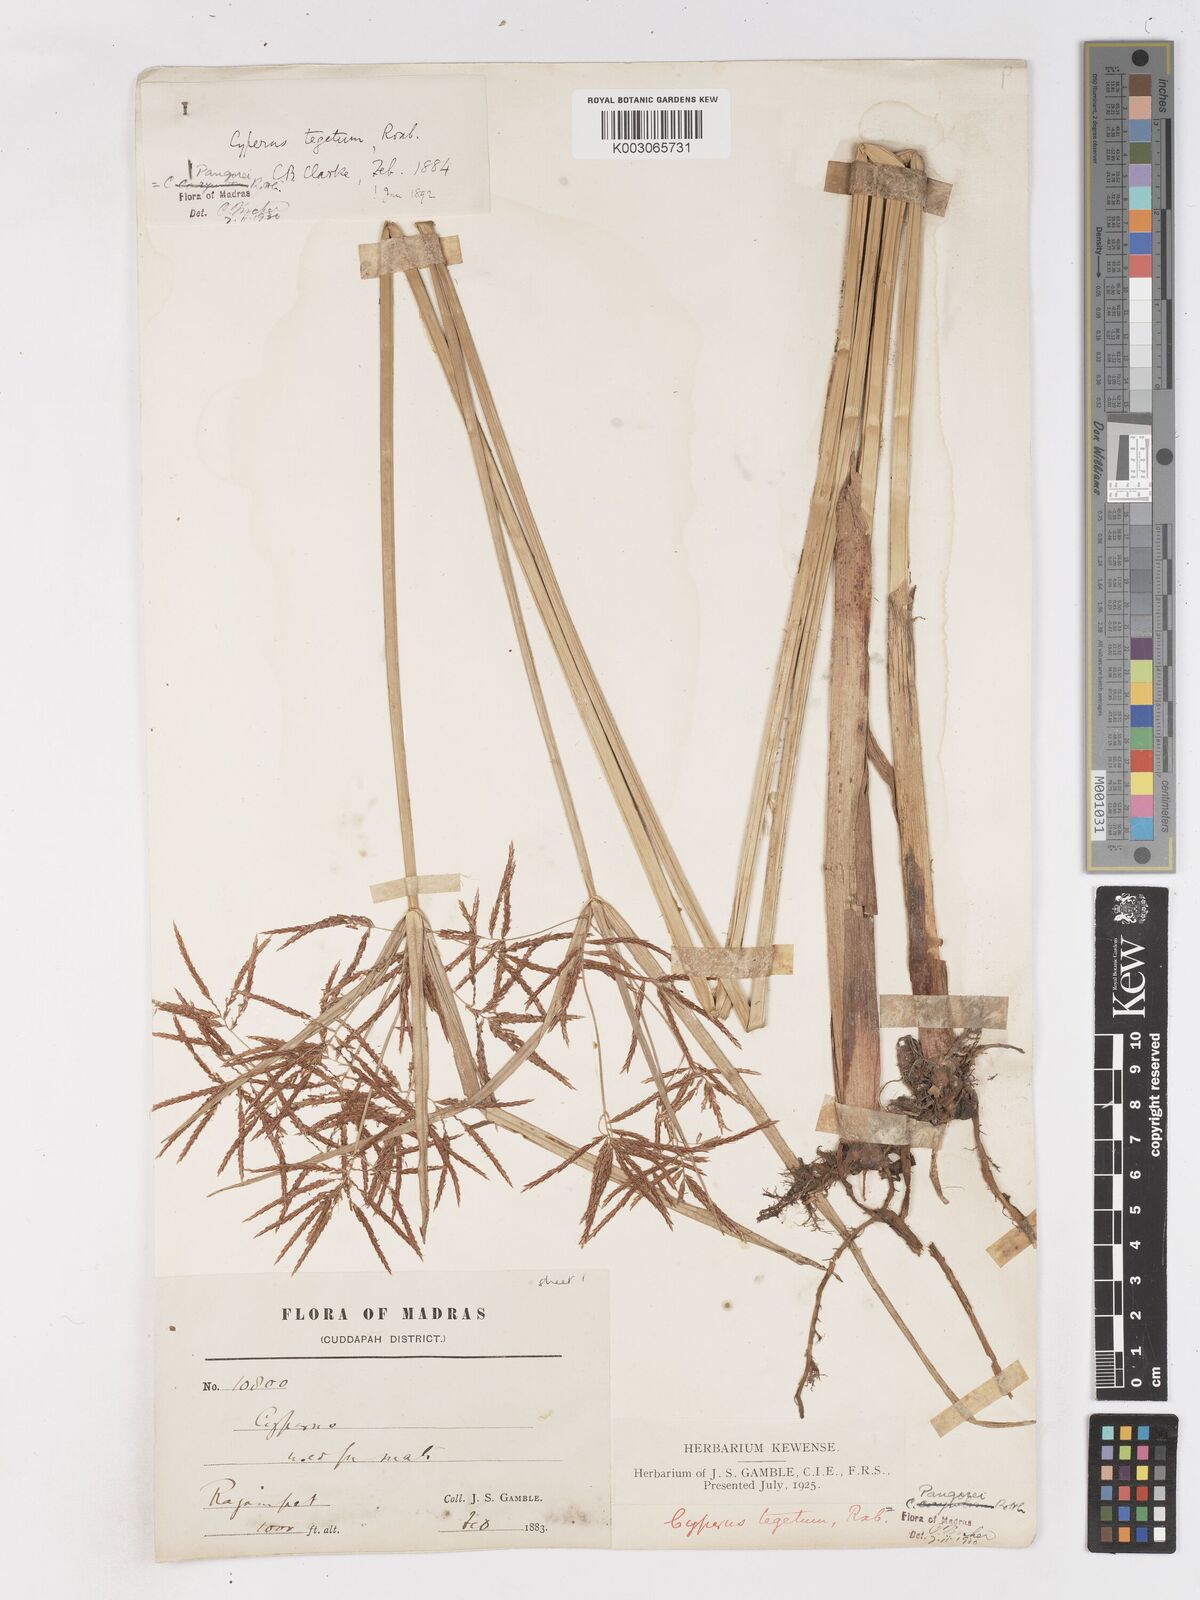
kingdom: Plantae
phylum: Tracheophyta
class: Liliopsida
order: Poales
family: Cyperaceae
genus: Cyperus
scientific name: Cyperus pangorei
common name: Mat sedge
